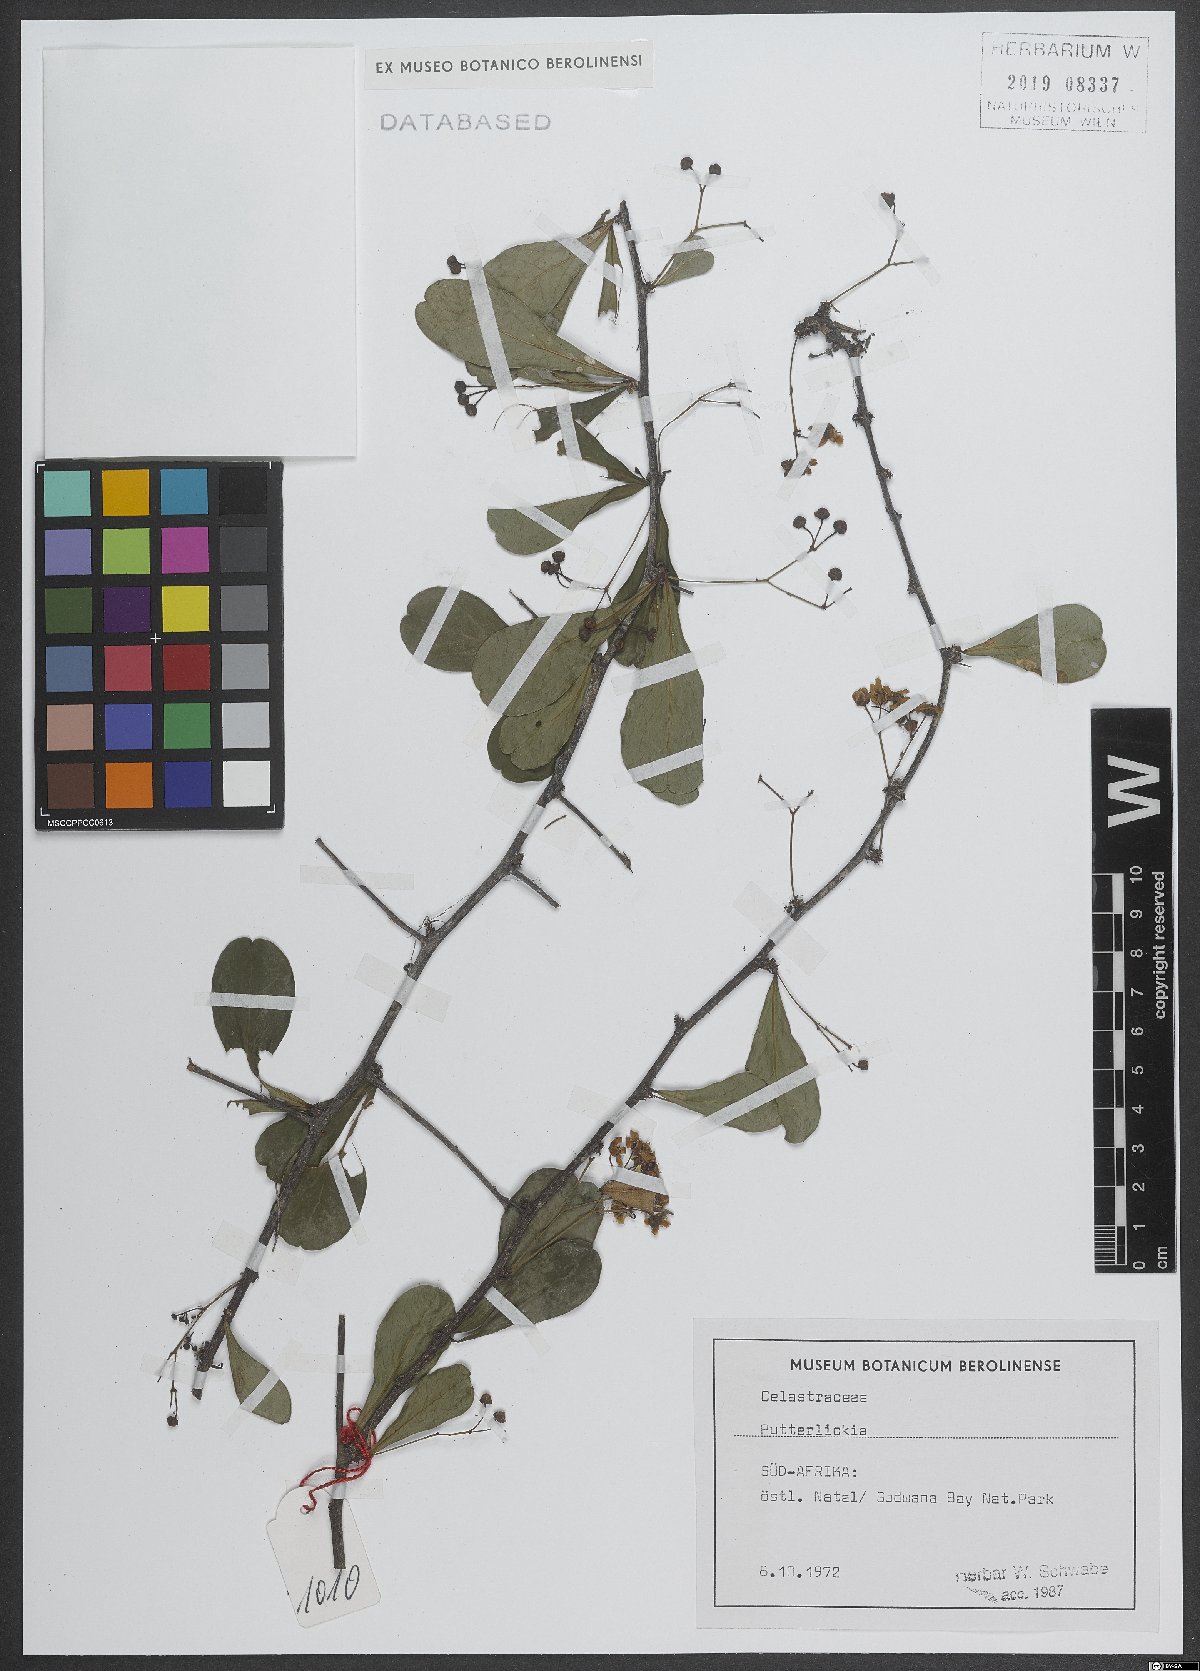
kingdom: Plantae
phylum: Tracheophyta
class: Magnoliopsida
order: Celastrales
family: Celastraceae
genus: Putterlickia
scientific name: Putterlickia
